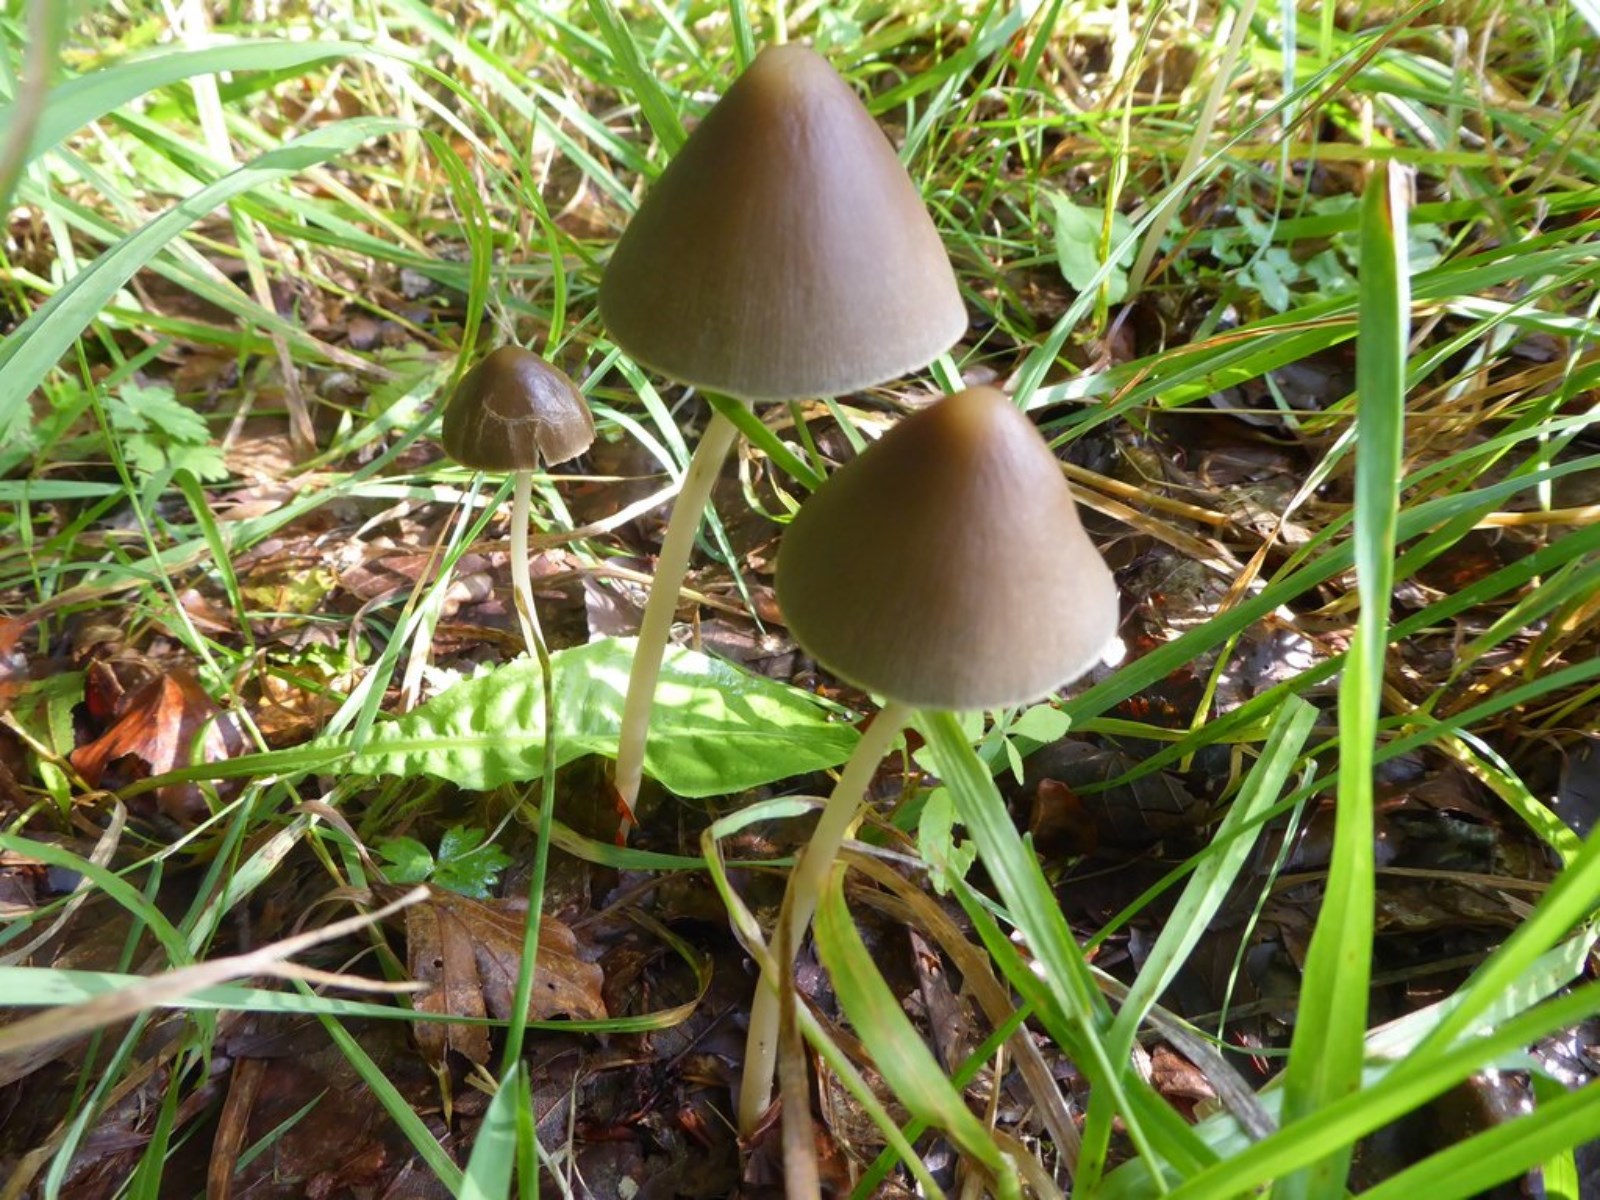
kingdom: Fungi
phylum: Basidiomycota
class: Agaricomycetes
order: Agaricales
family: Psathyrellaceae
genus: Parasola
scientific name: Parasola conopilea
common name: kegle-hjulhat
